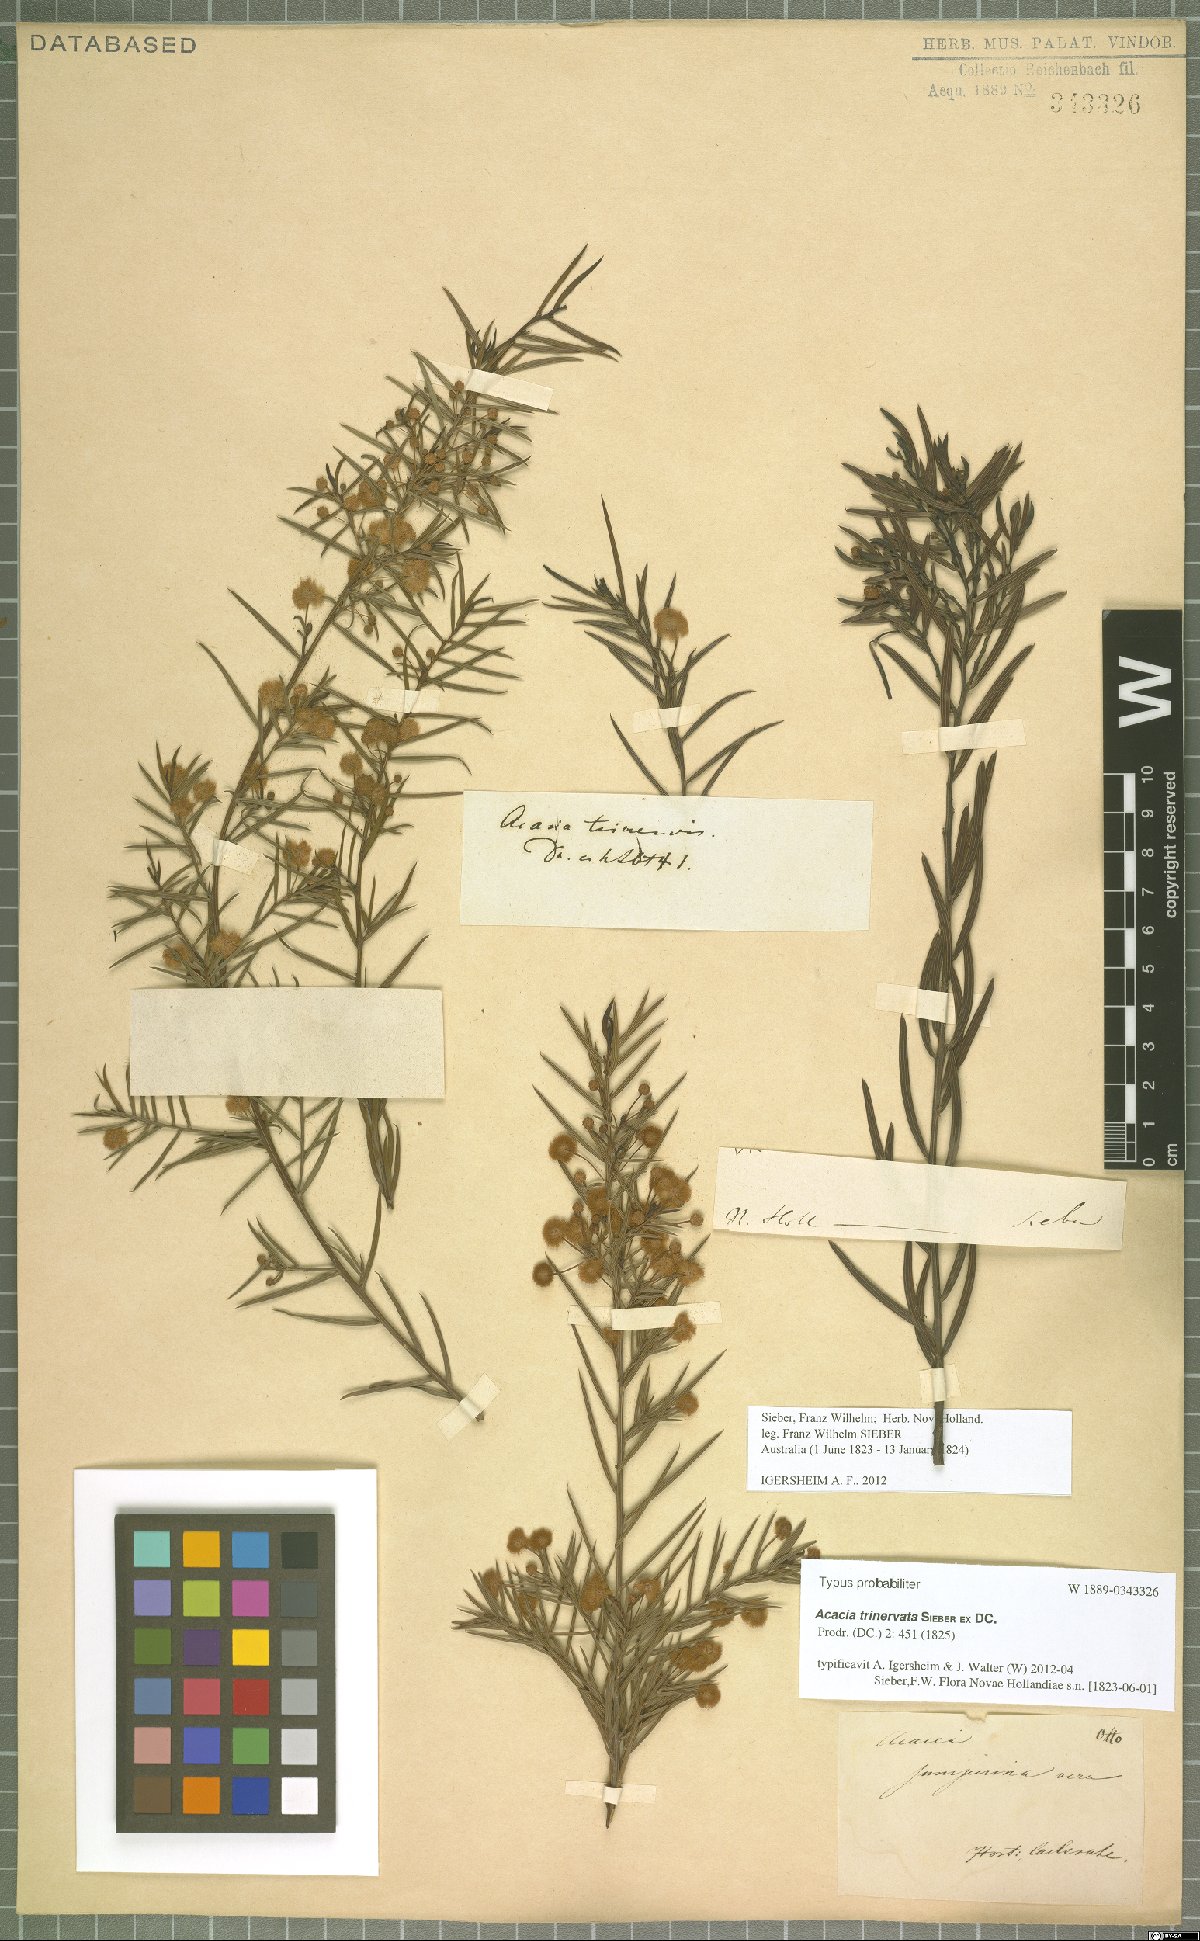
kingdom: Plantae
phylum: Tracheophyta
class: Magnoliopsida
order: Fabales
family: Fabaceae
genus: Acacia
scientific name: Acacia trinervata
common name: Three-nerve wattle
